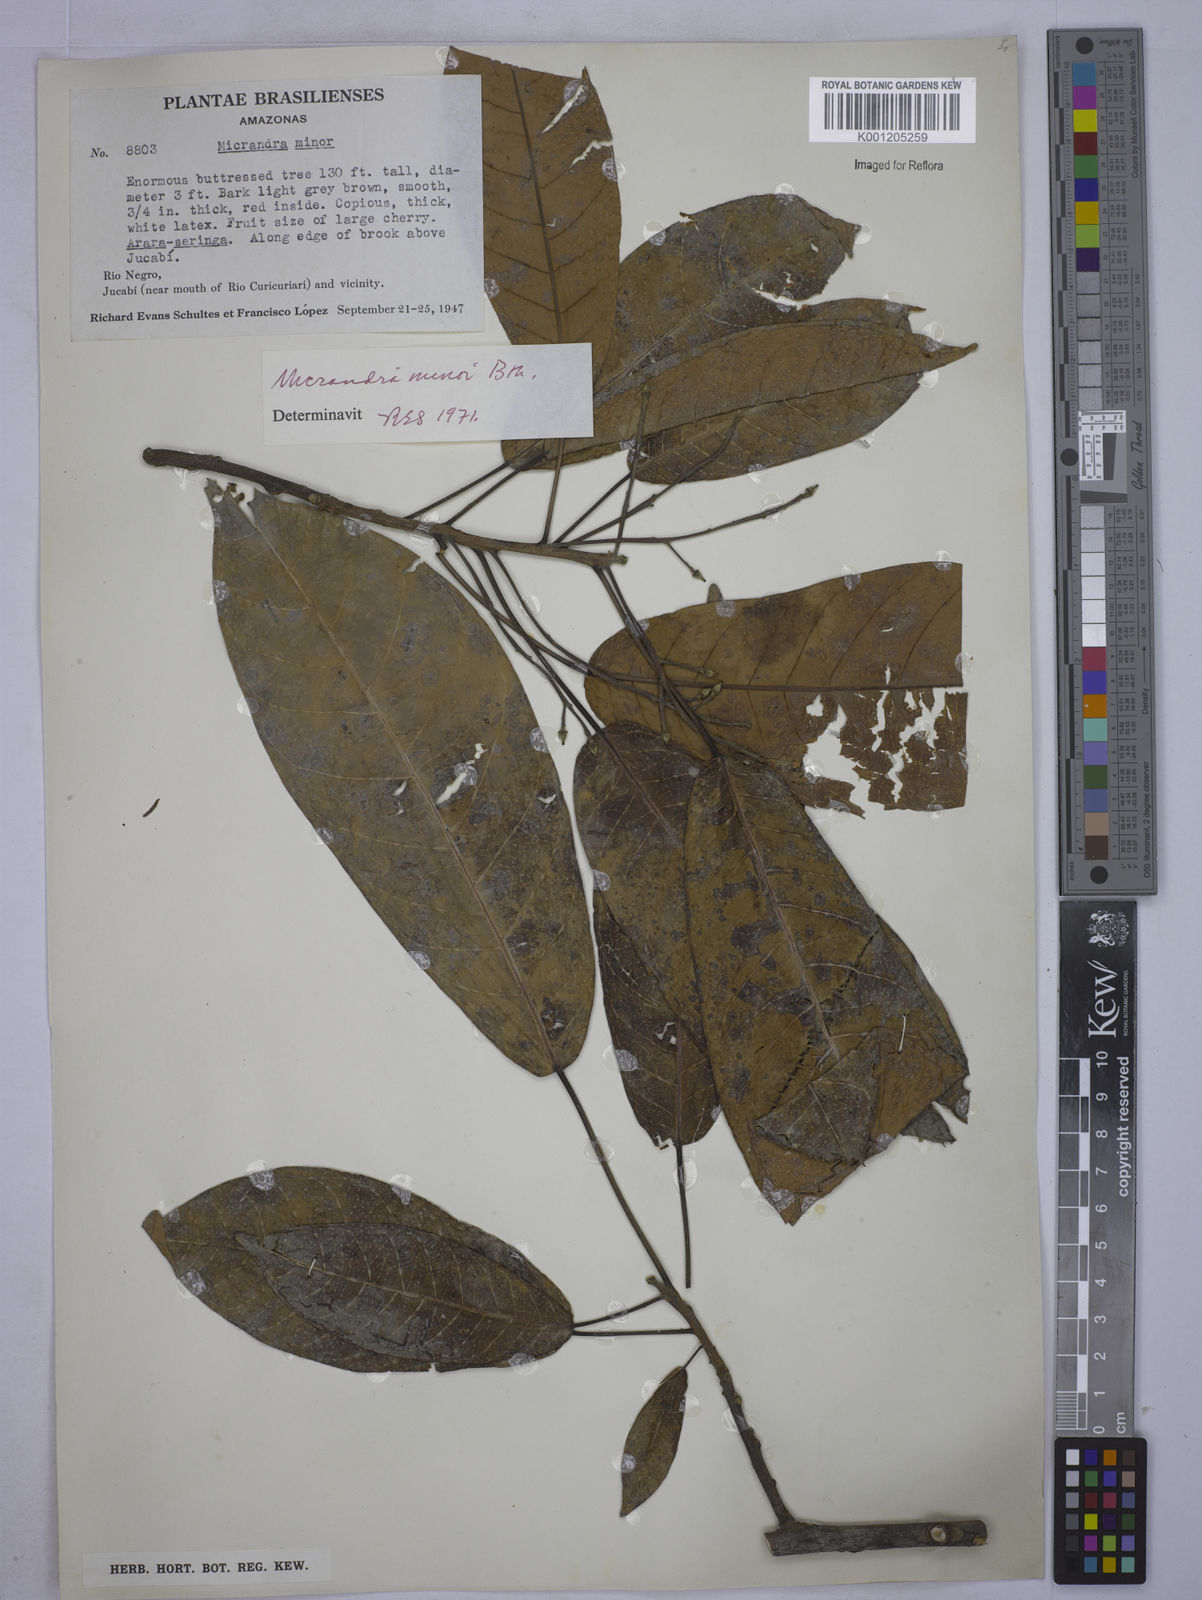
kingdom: Plantae
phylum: Tracheophyta
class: Magnoliopsida
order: Malpighiales
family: Euphorbiaceae
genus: Micrandra
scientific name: Micrandra minor
